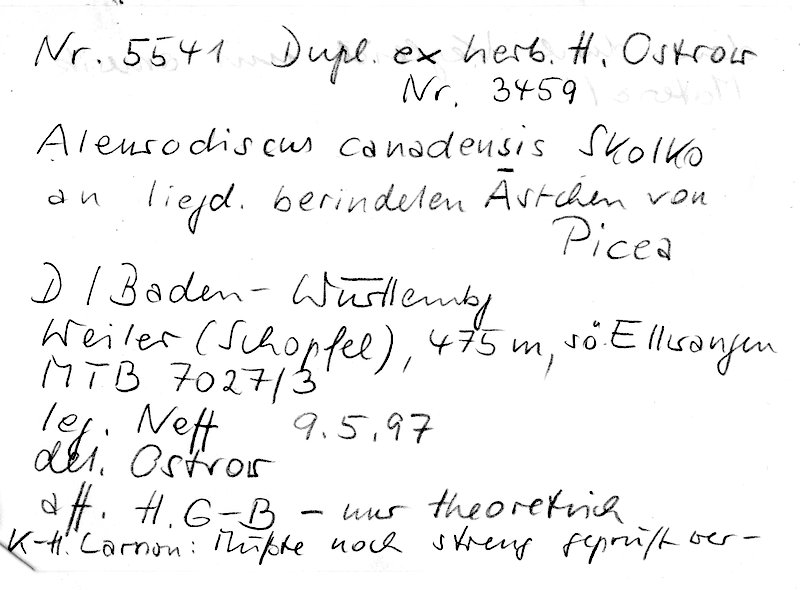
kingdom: Plantae
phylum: Tracheophyta
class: Pinopsida
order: Pinales
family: Pinaceae
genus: Picea
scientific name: Picea
